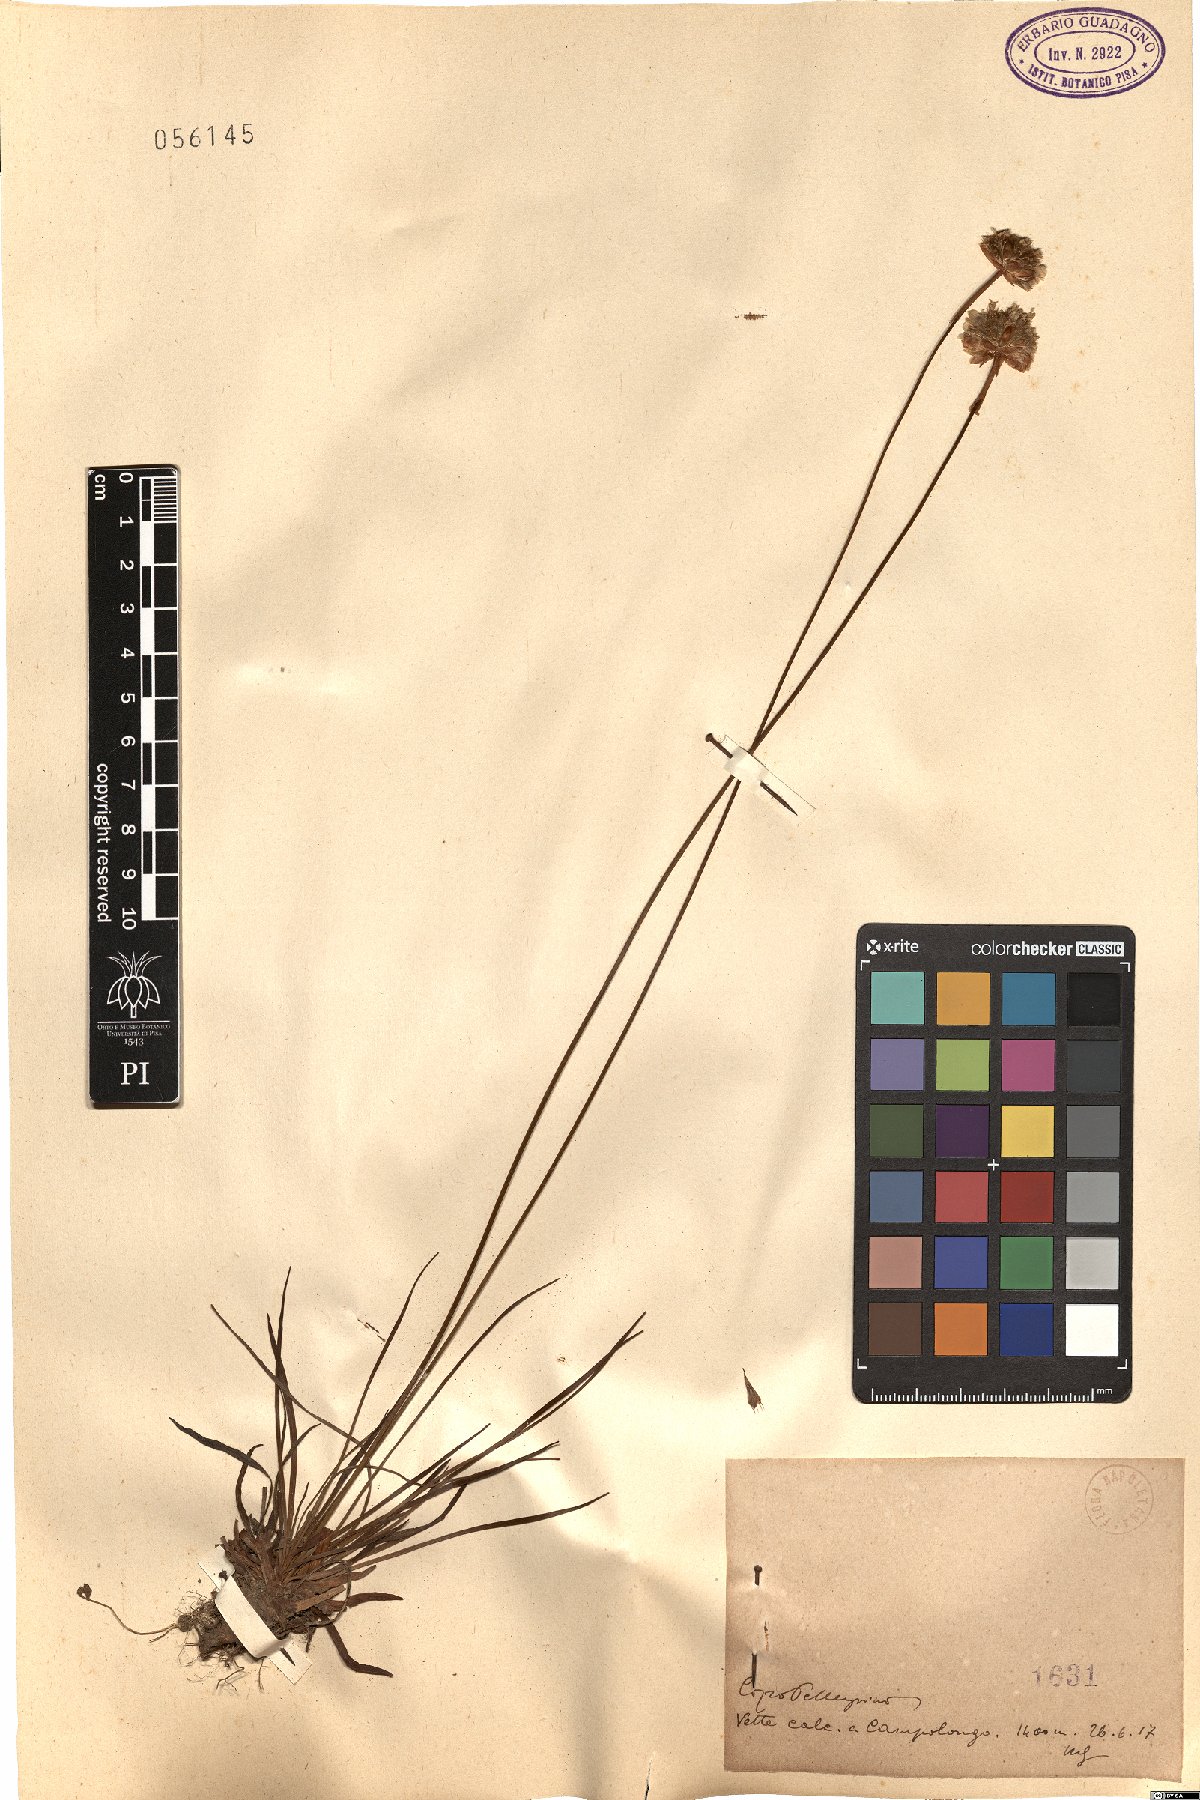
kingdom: Plantae
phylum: Tracheophyta
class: Magnoliopsida
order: Caryophyllales
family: Plumbaginaceae
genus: Armeria
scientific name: Armeria
